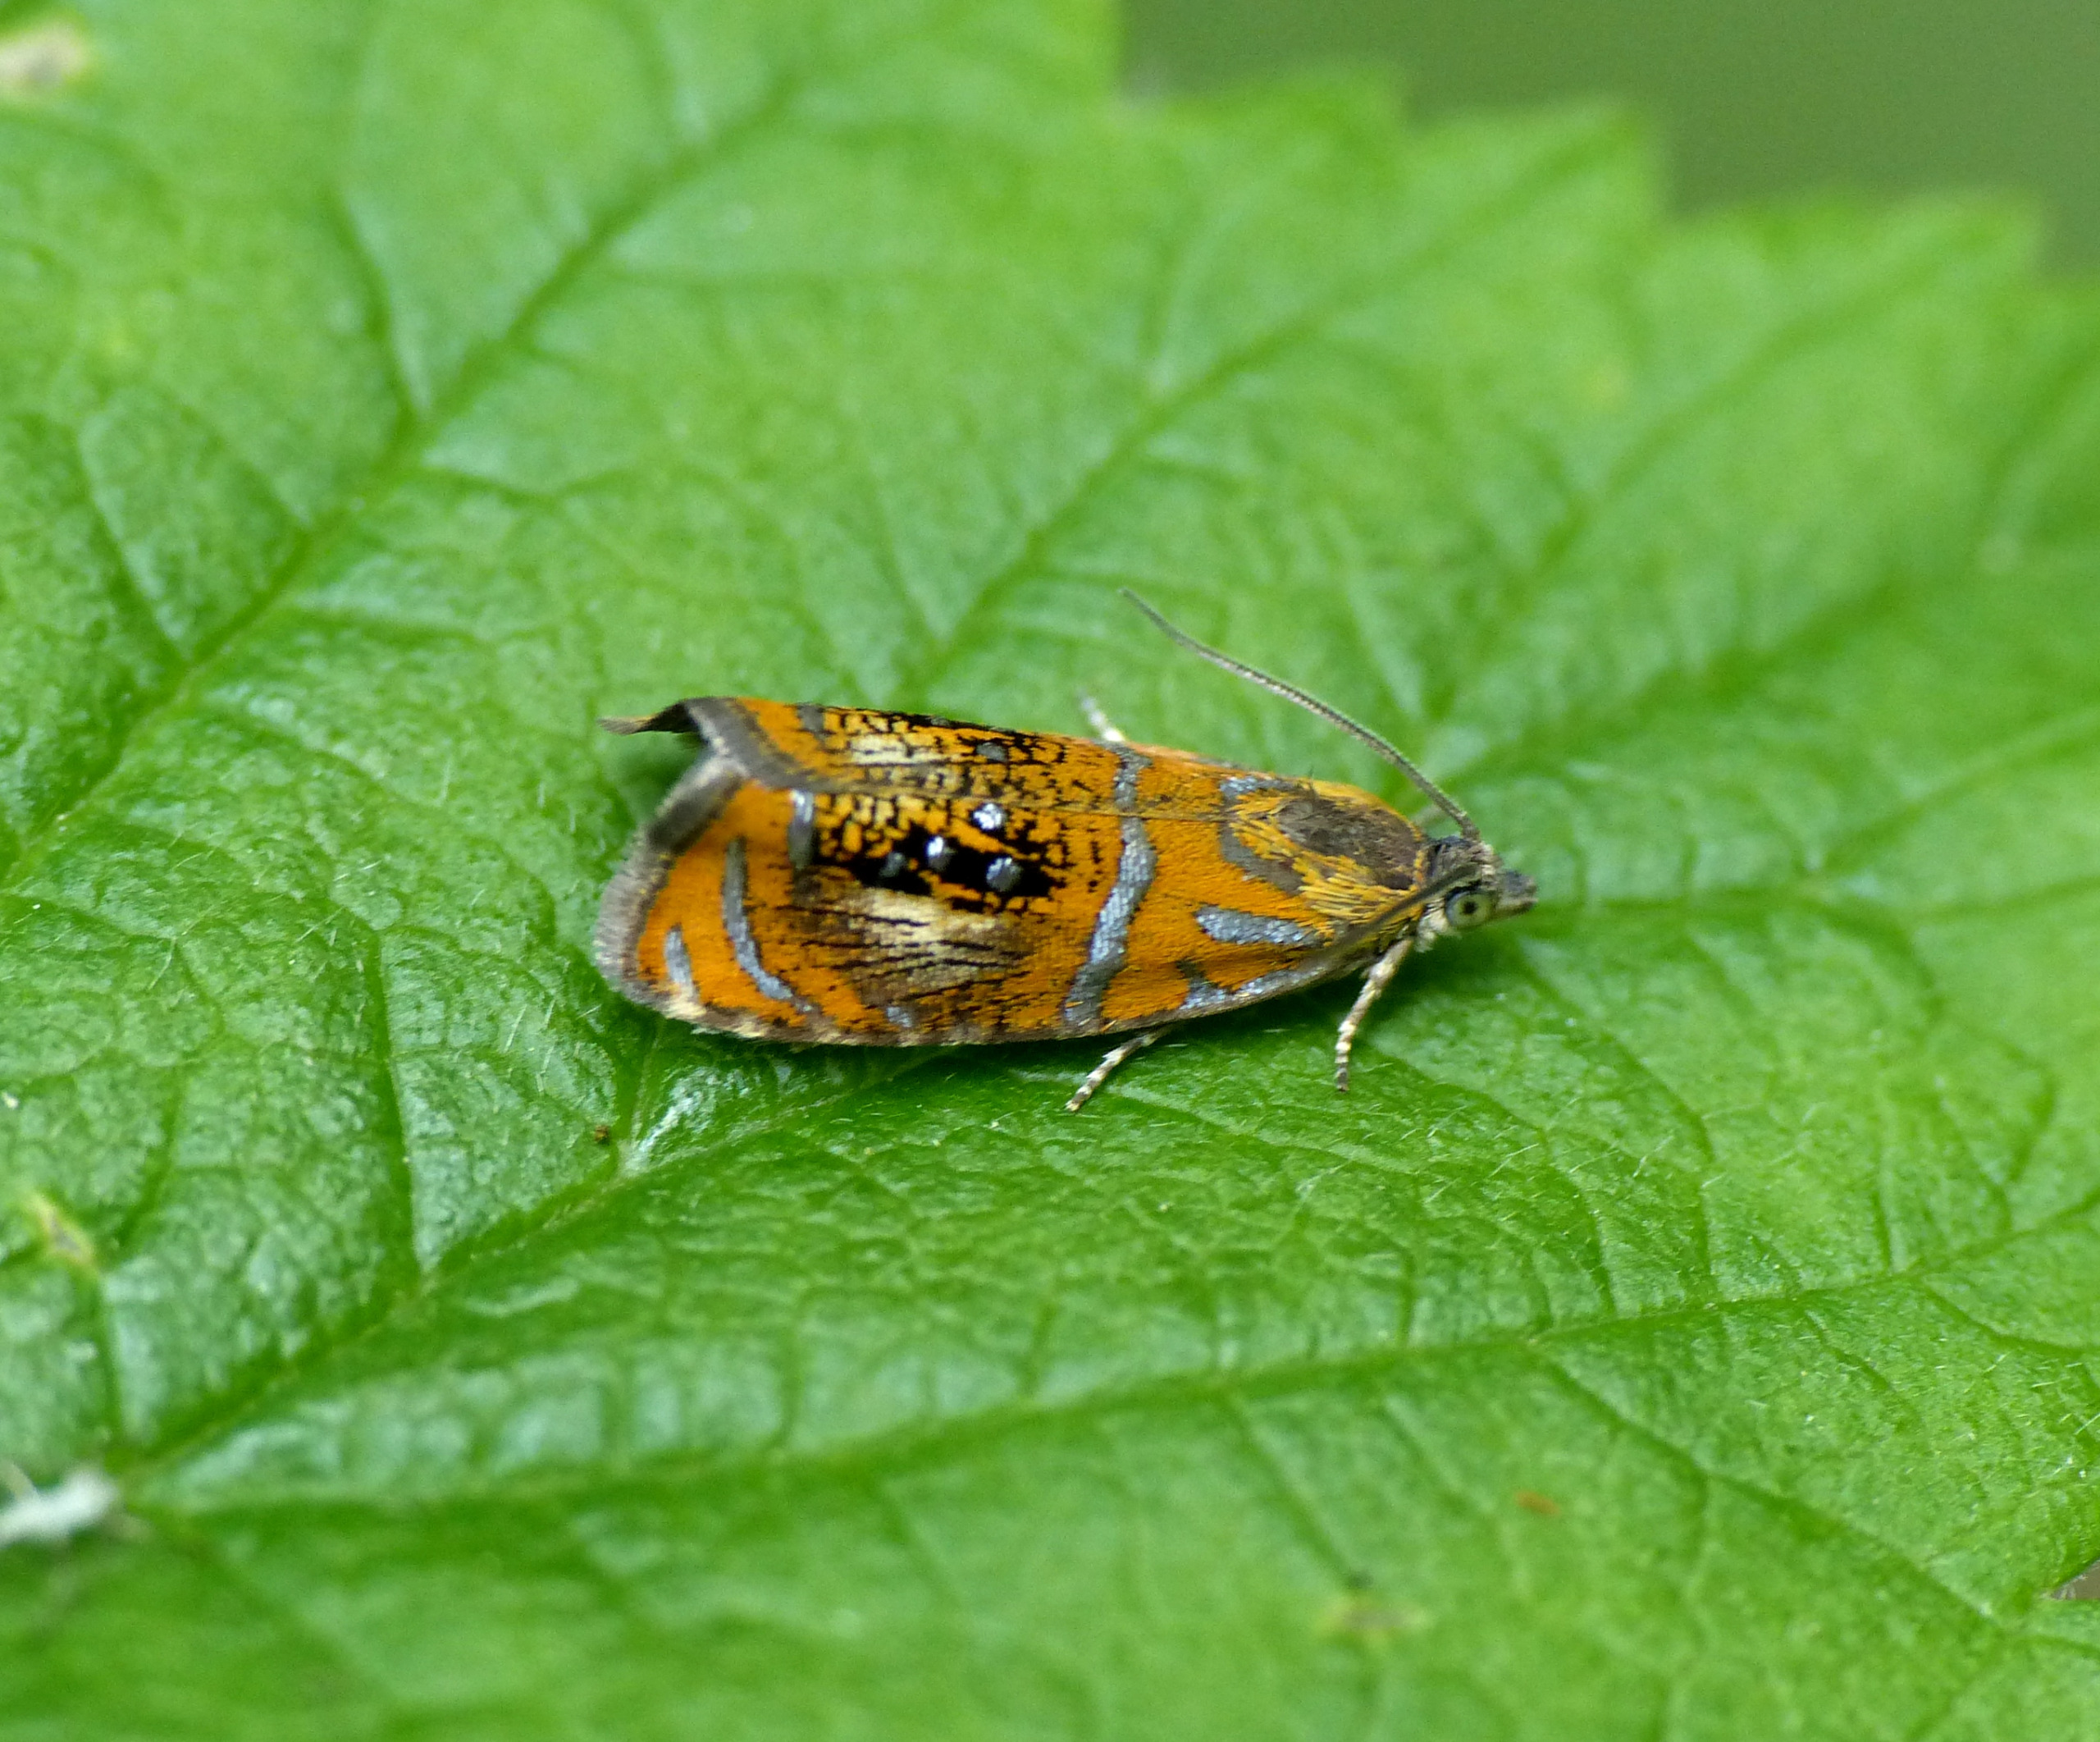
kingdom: Animalia
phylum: Arthropoda
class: Insecta
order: Lepidoptera
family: Tortricidae
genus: Olethreutes
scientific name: Olethreutes arcuella
